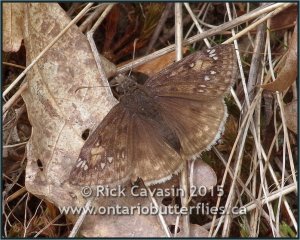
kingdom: Animalia
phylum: Arthropoda
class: Insecta
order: Lepidoptera
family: Hesperiidae
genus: Gesta
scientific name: Gesta
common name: Juvenal's Duskywing
